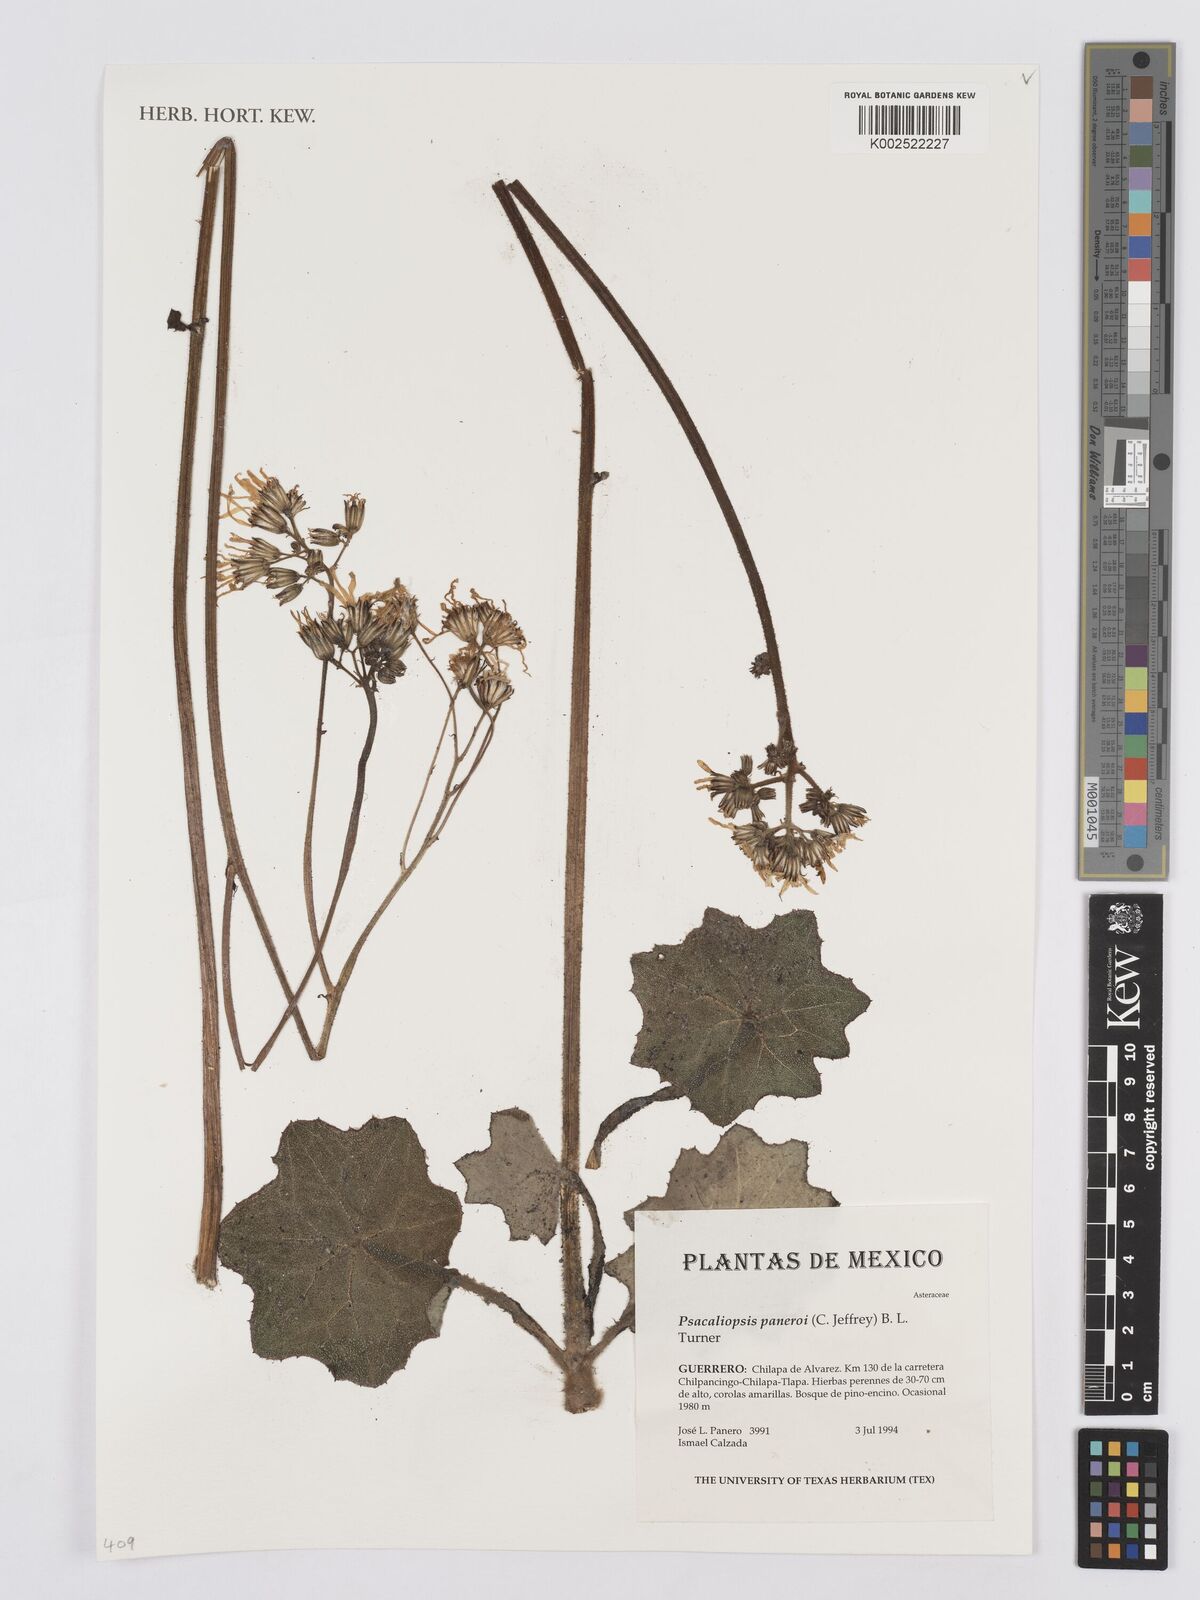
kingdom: Plantae
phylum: Tracheophyta
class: Magnoliopsida
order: Asterales
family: Asteraceae
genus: Psacaliopsis
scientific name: Psacaliopsis pinetorum
